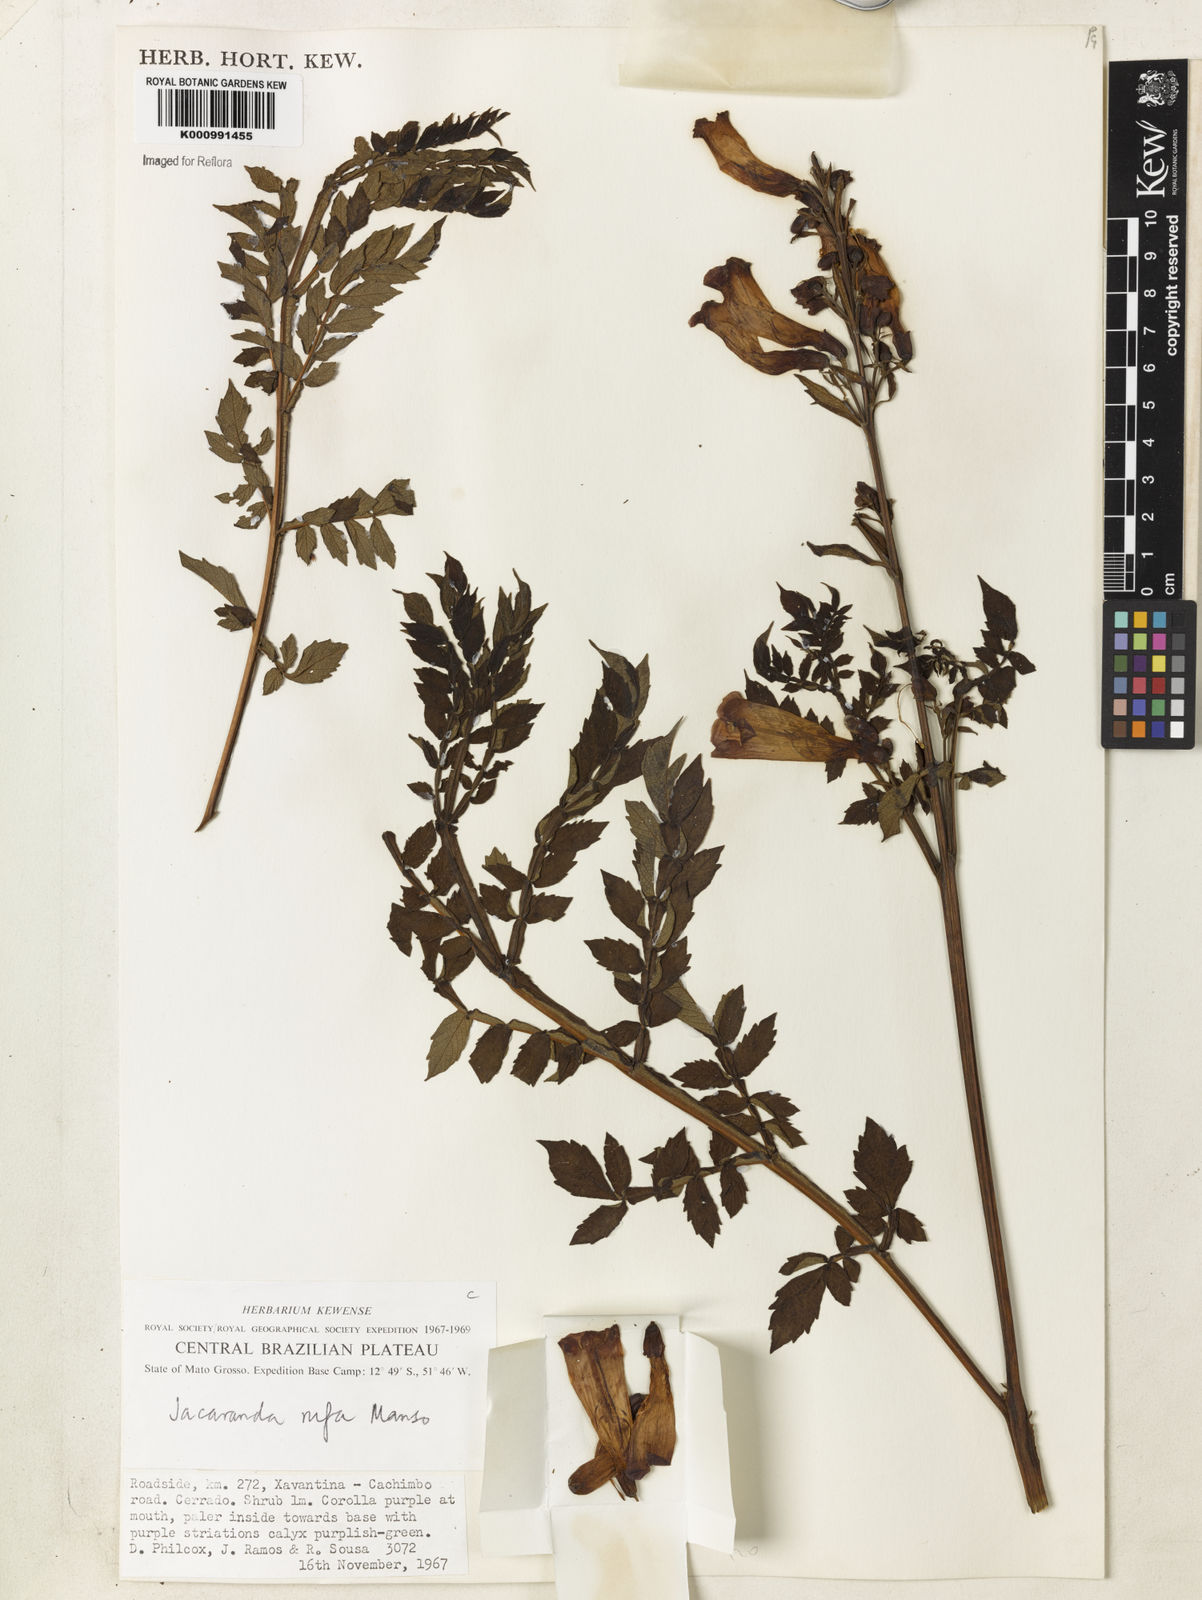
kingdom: Plantae
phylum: Tracheophyta
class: Magnoliopsida
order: Lamiales
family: Bignoniaceae
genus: Jacaranda
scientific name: Jacaranda rufa
